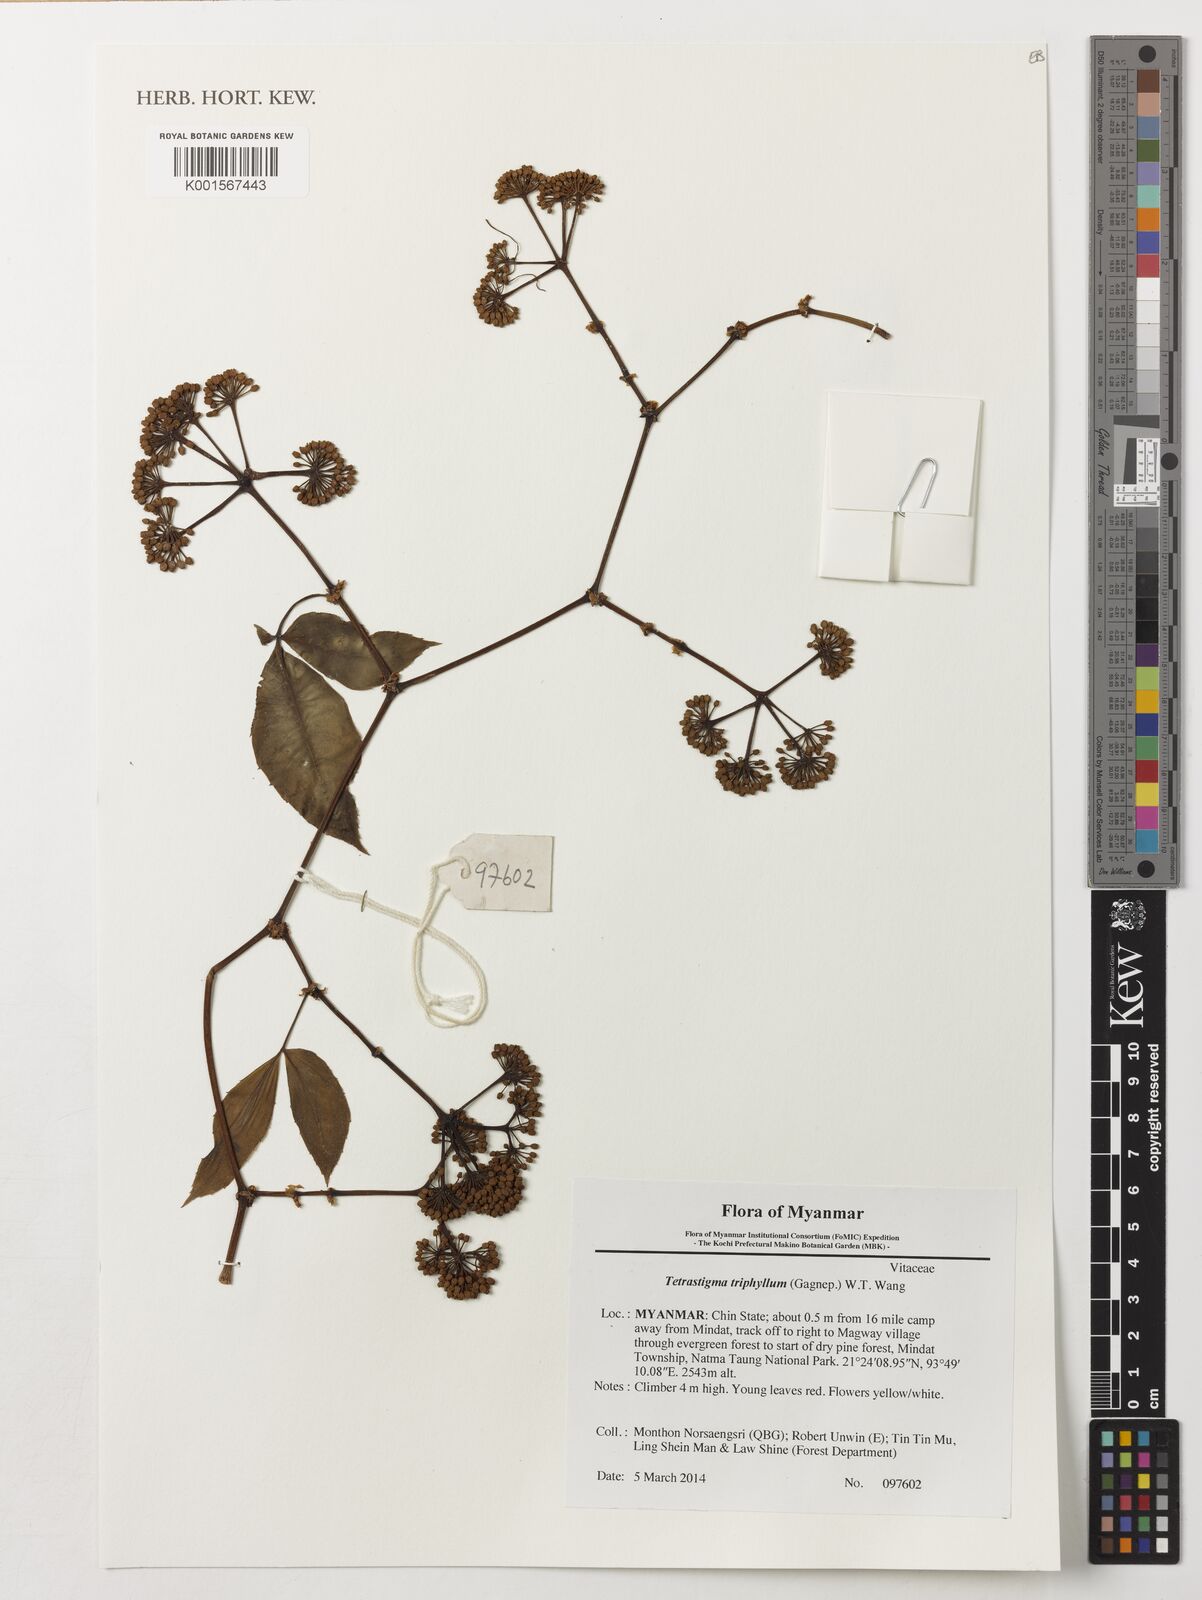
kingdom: Plantae
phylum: Tracheophyta
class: Magnoliopsida
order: Vitales
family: Vitaceae
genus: Tetrastigma
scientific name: Tetrastigma triphyllum
